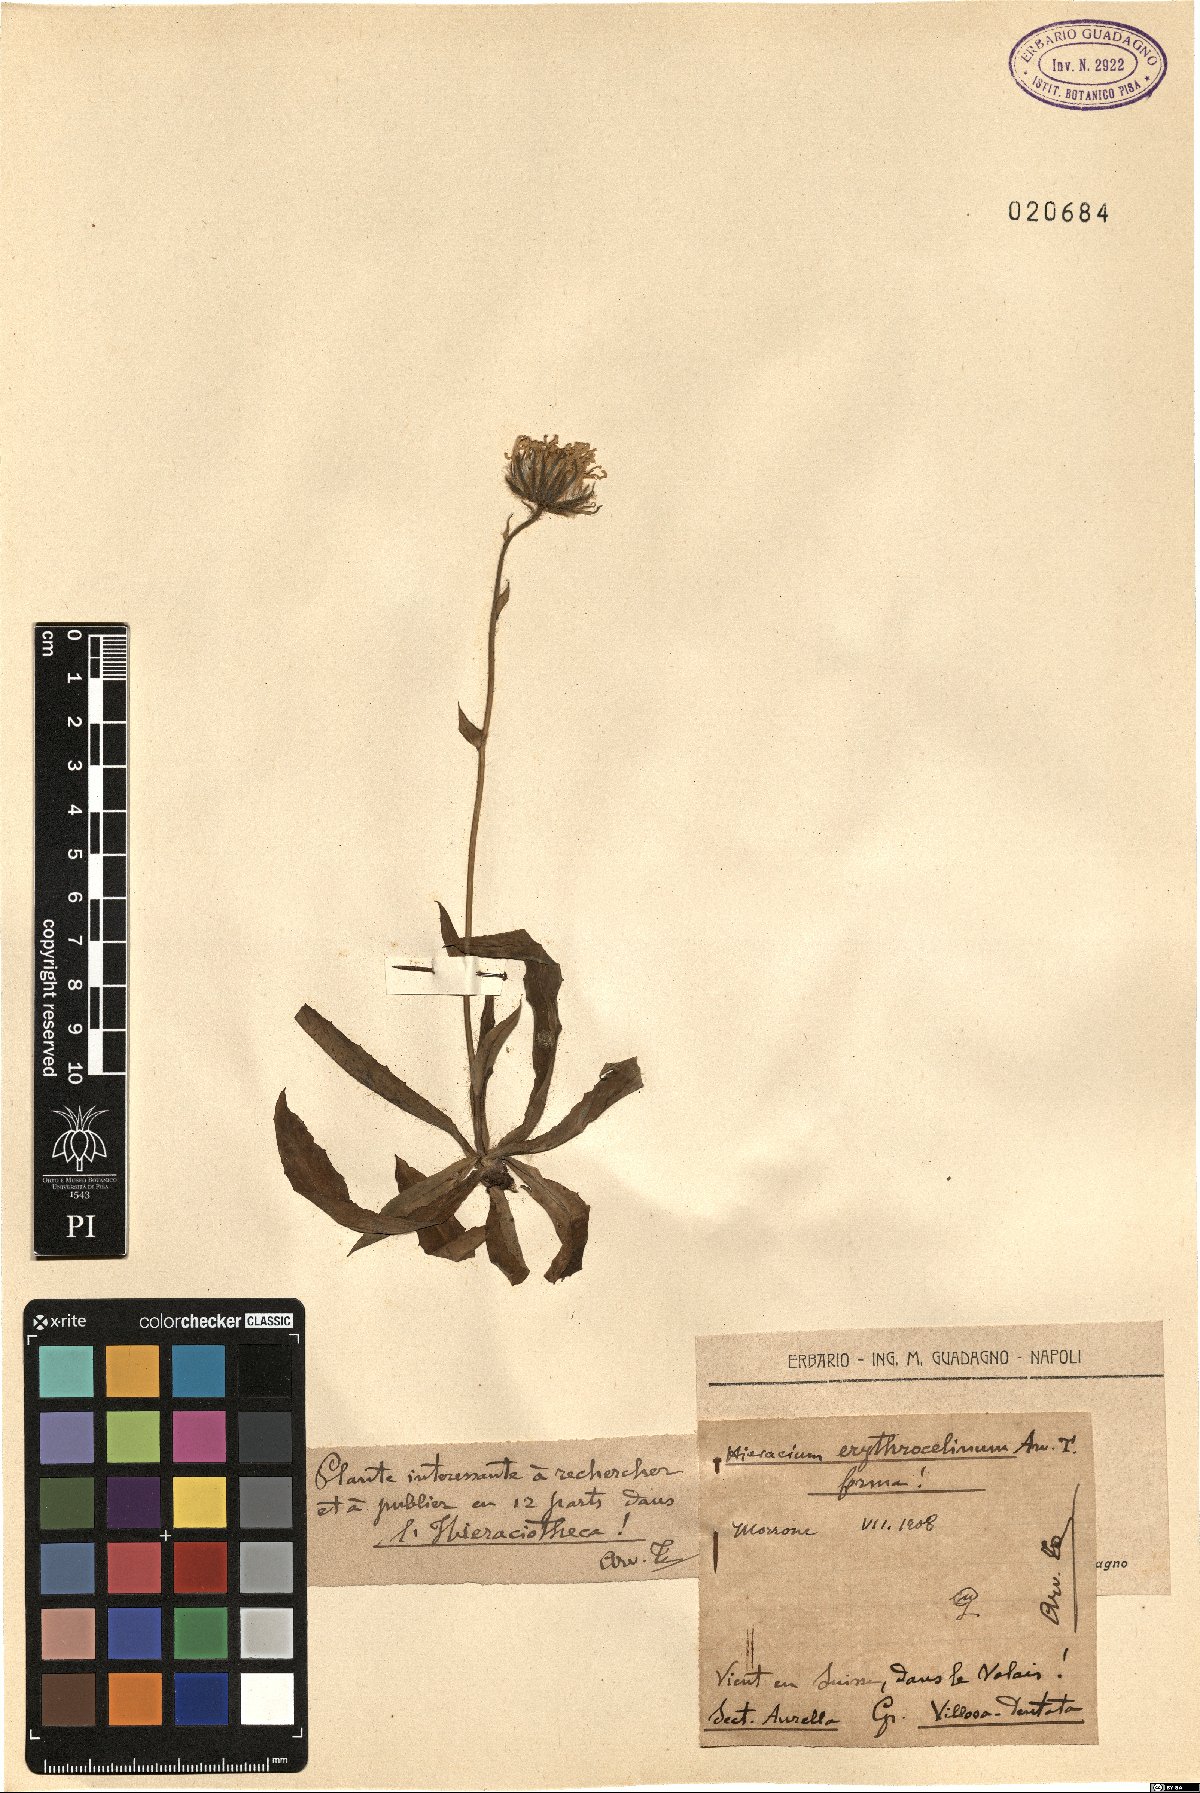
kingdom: Plantae
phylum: Tracheophyta
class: Magnoliopsida
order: Asterales
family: Asteraceae
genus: Hieracium
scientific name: Hieracium
